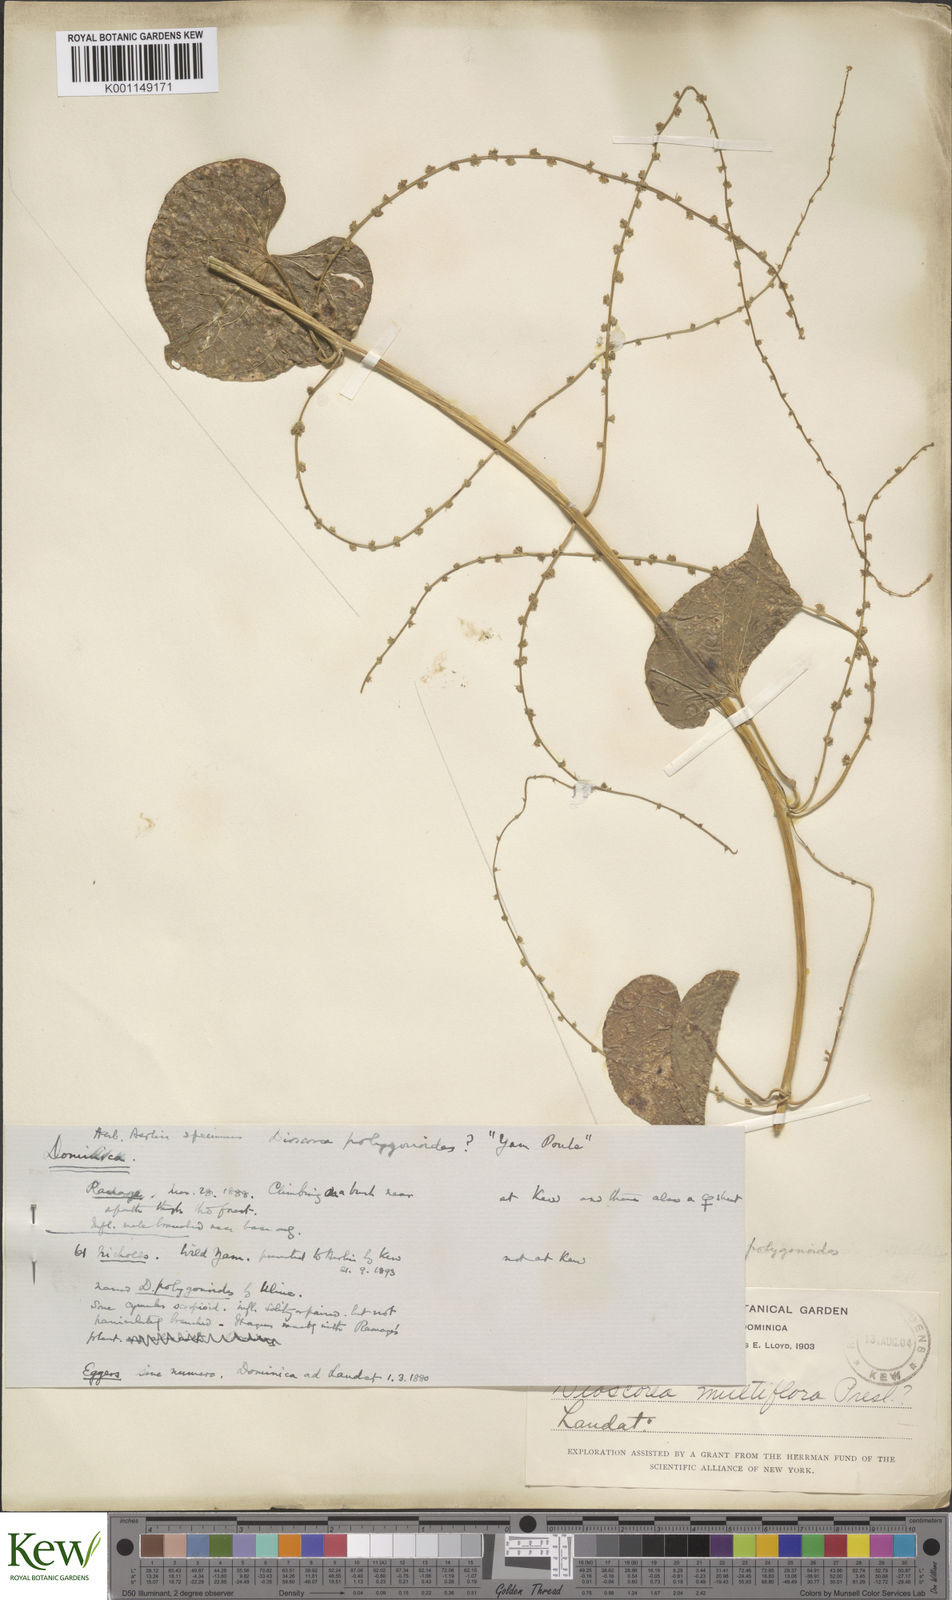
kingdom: Plantae
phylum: Tracheophyta
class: Liliopsida
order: Dioscoreales
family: Dioscoreaceae
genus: Dioscorea
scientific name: Dioscorea polygonoides
